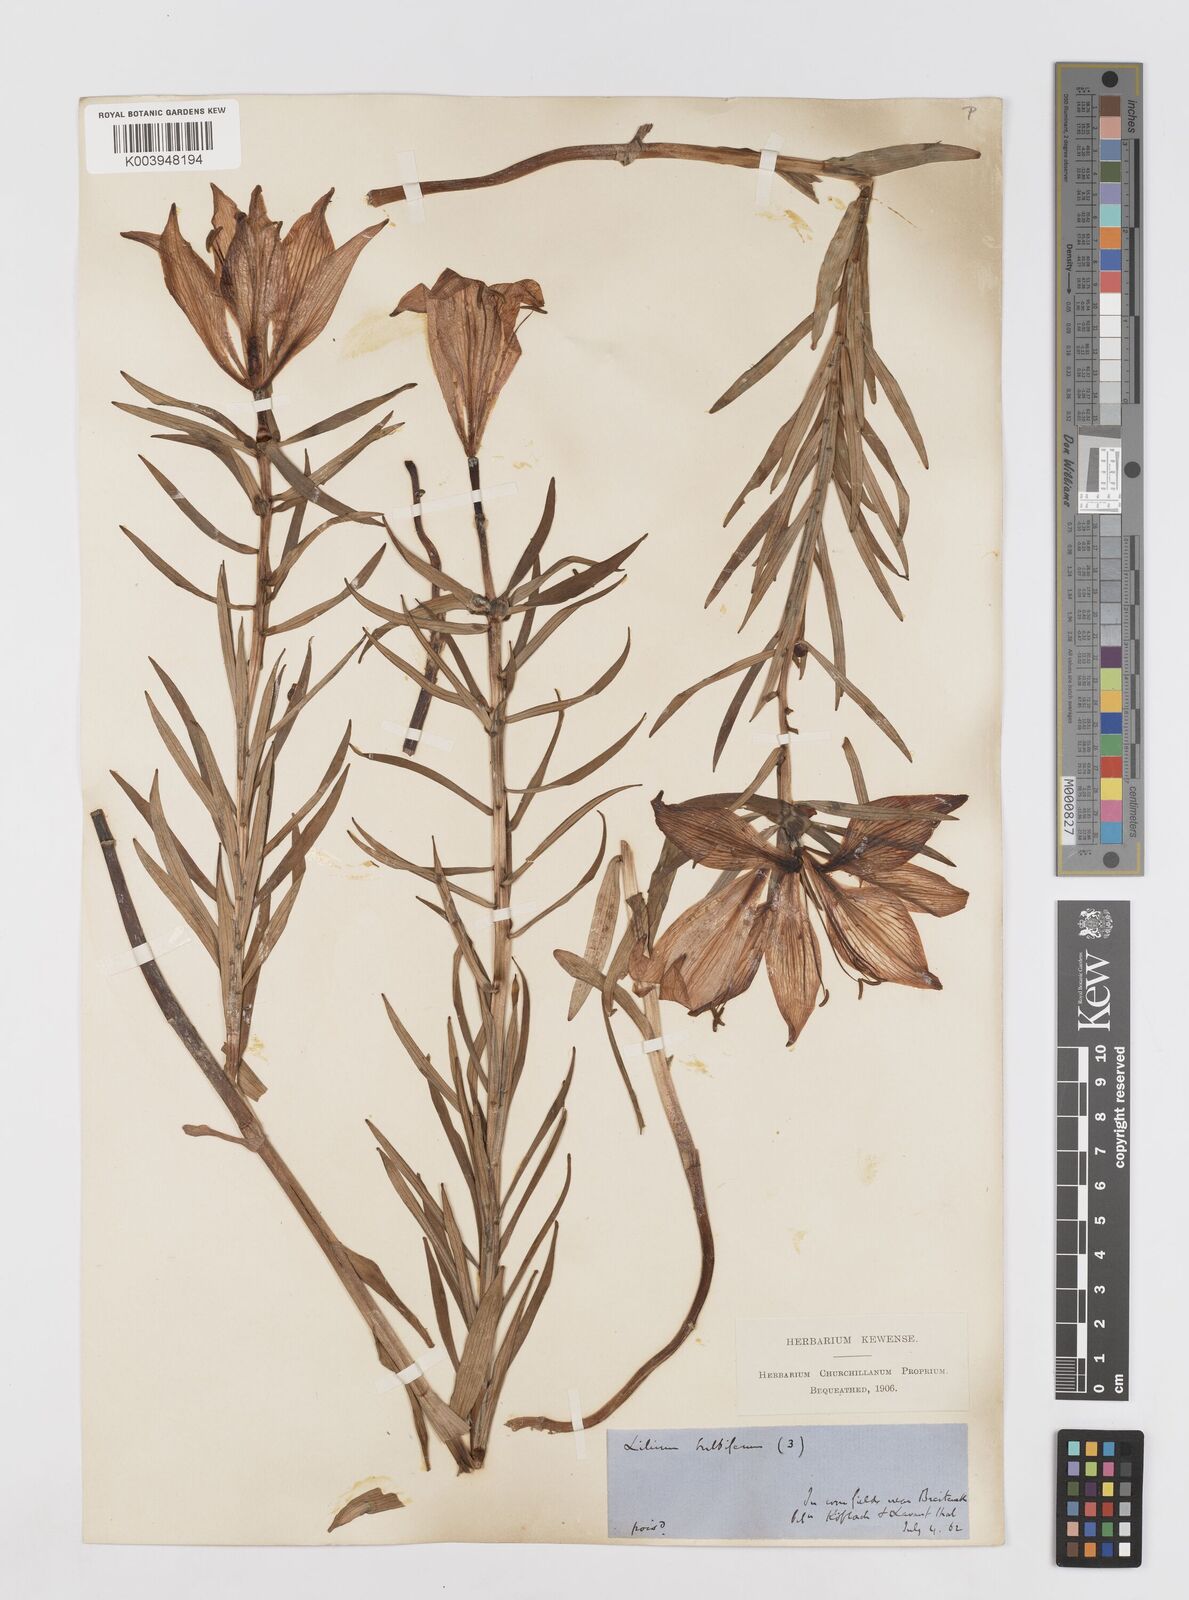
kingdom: Plantae
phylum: Tracheophyta
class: Liliopsida
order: Liliales
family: Liliaceae
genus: Lilium
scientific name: Lilium bulbiferum
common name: Orange lily
